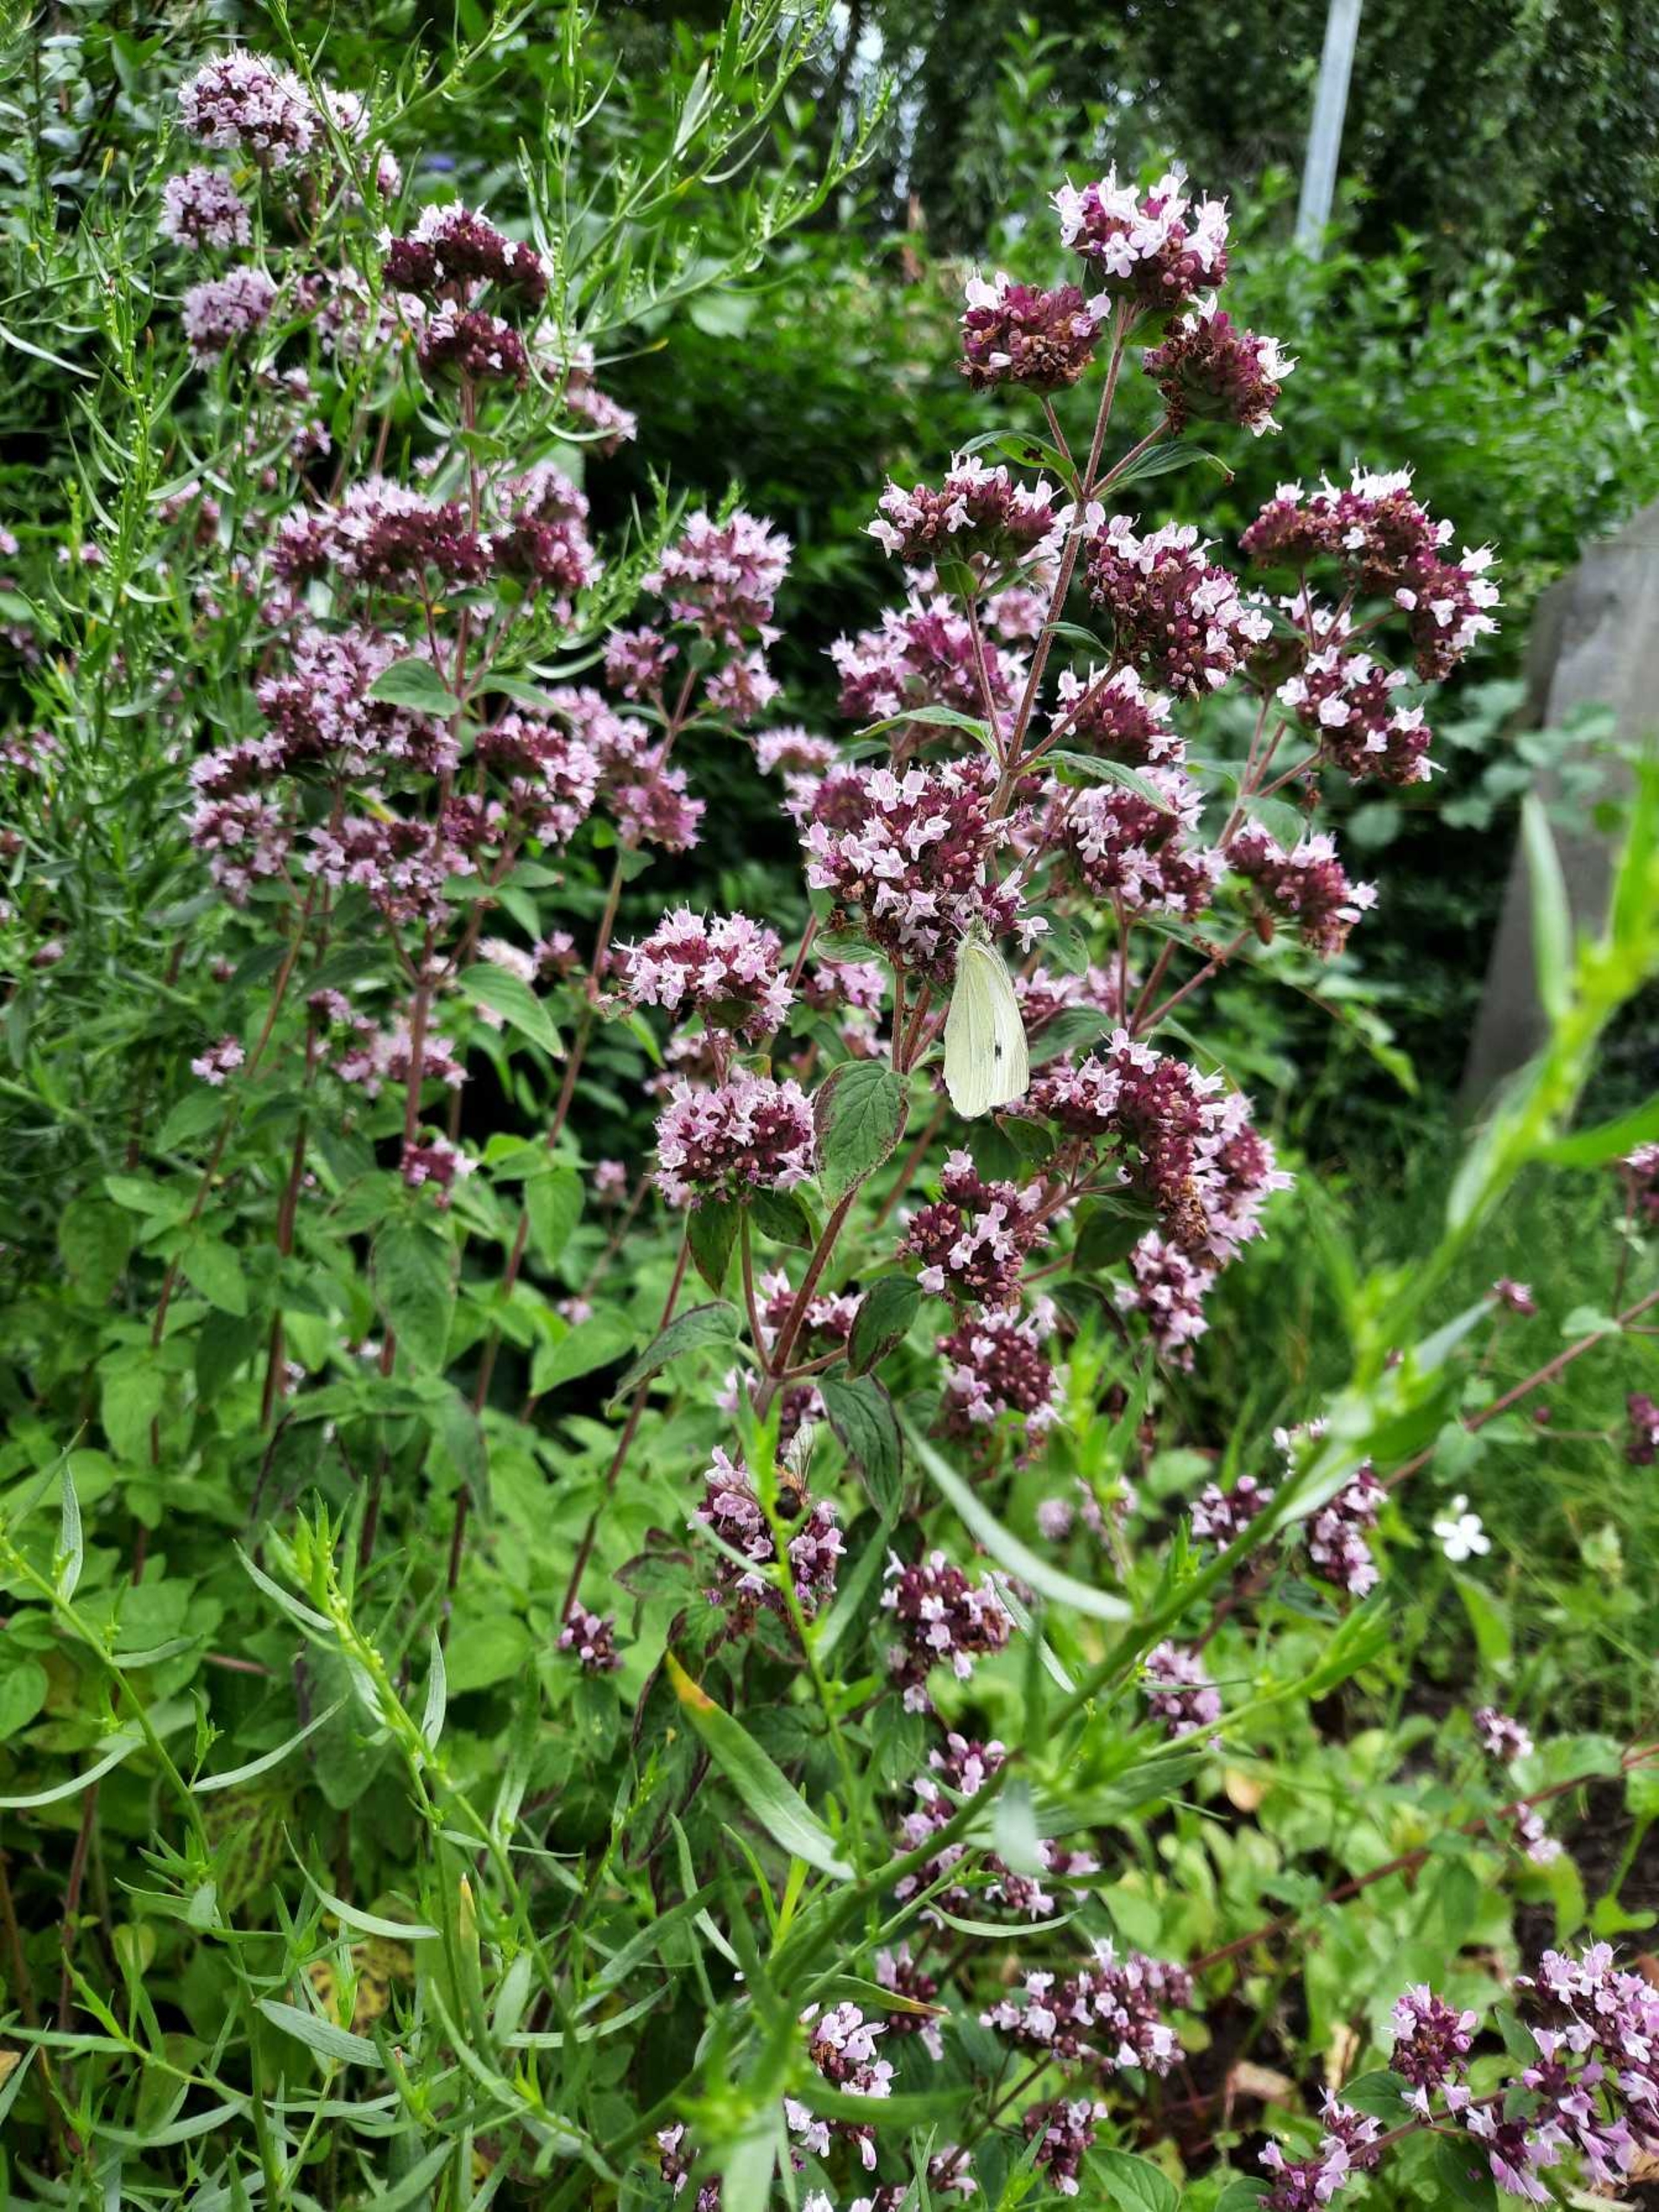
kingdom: Animalia
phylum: Arthropoda
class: Insecta
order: Lepidoptera
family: Pieridae
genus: Pieris
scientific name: Pieris rapae
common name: Lille kålsommerfugl
